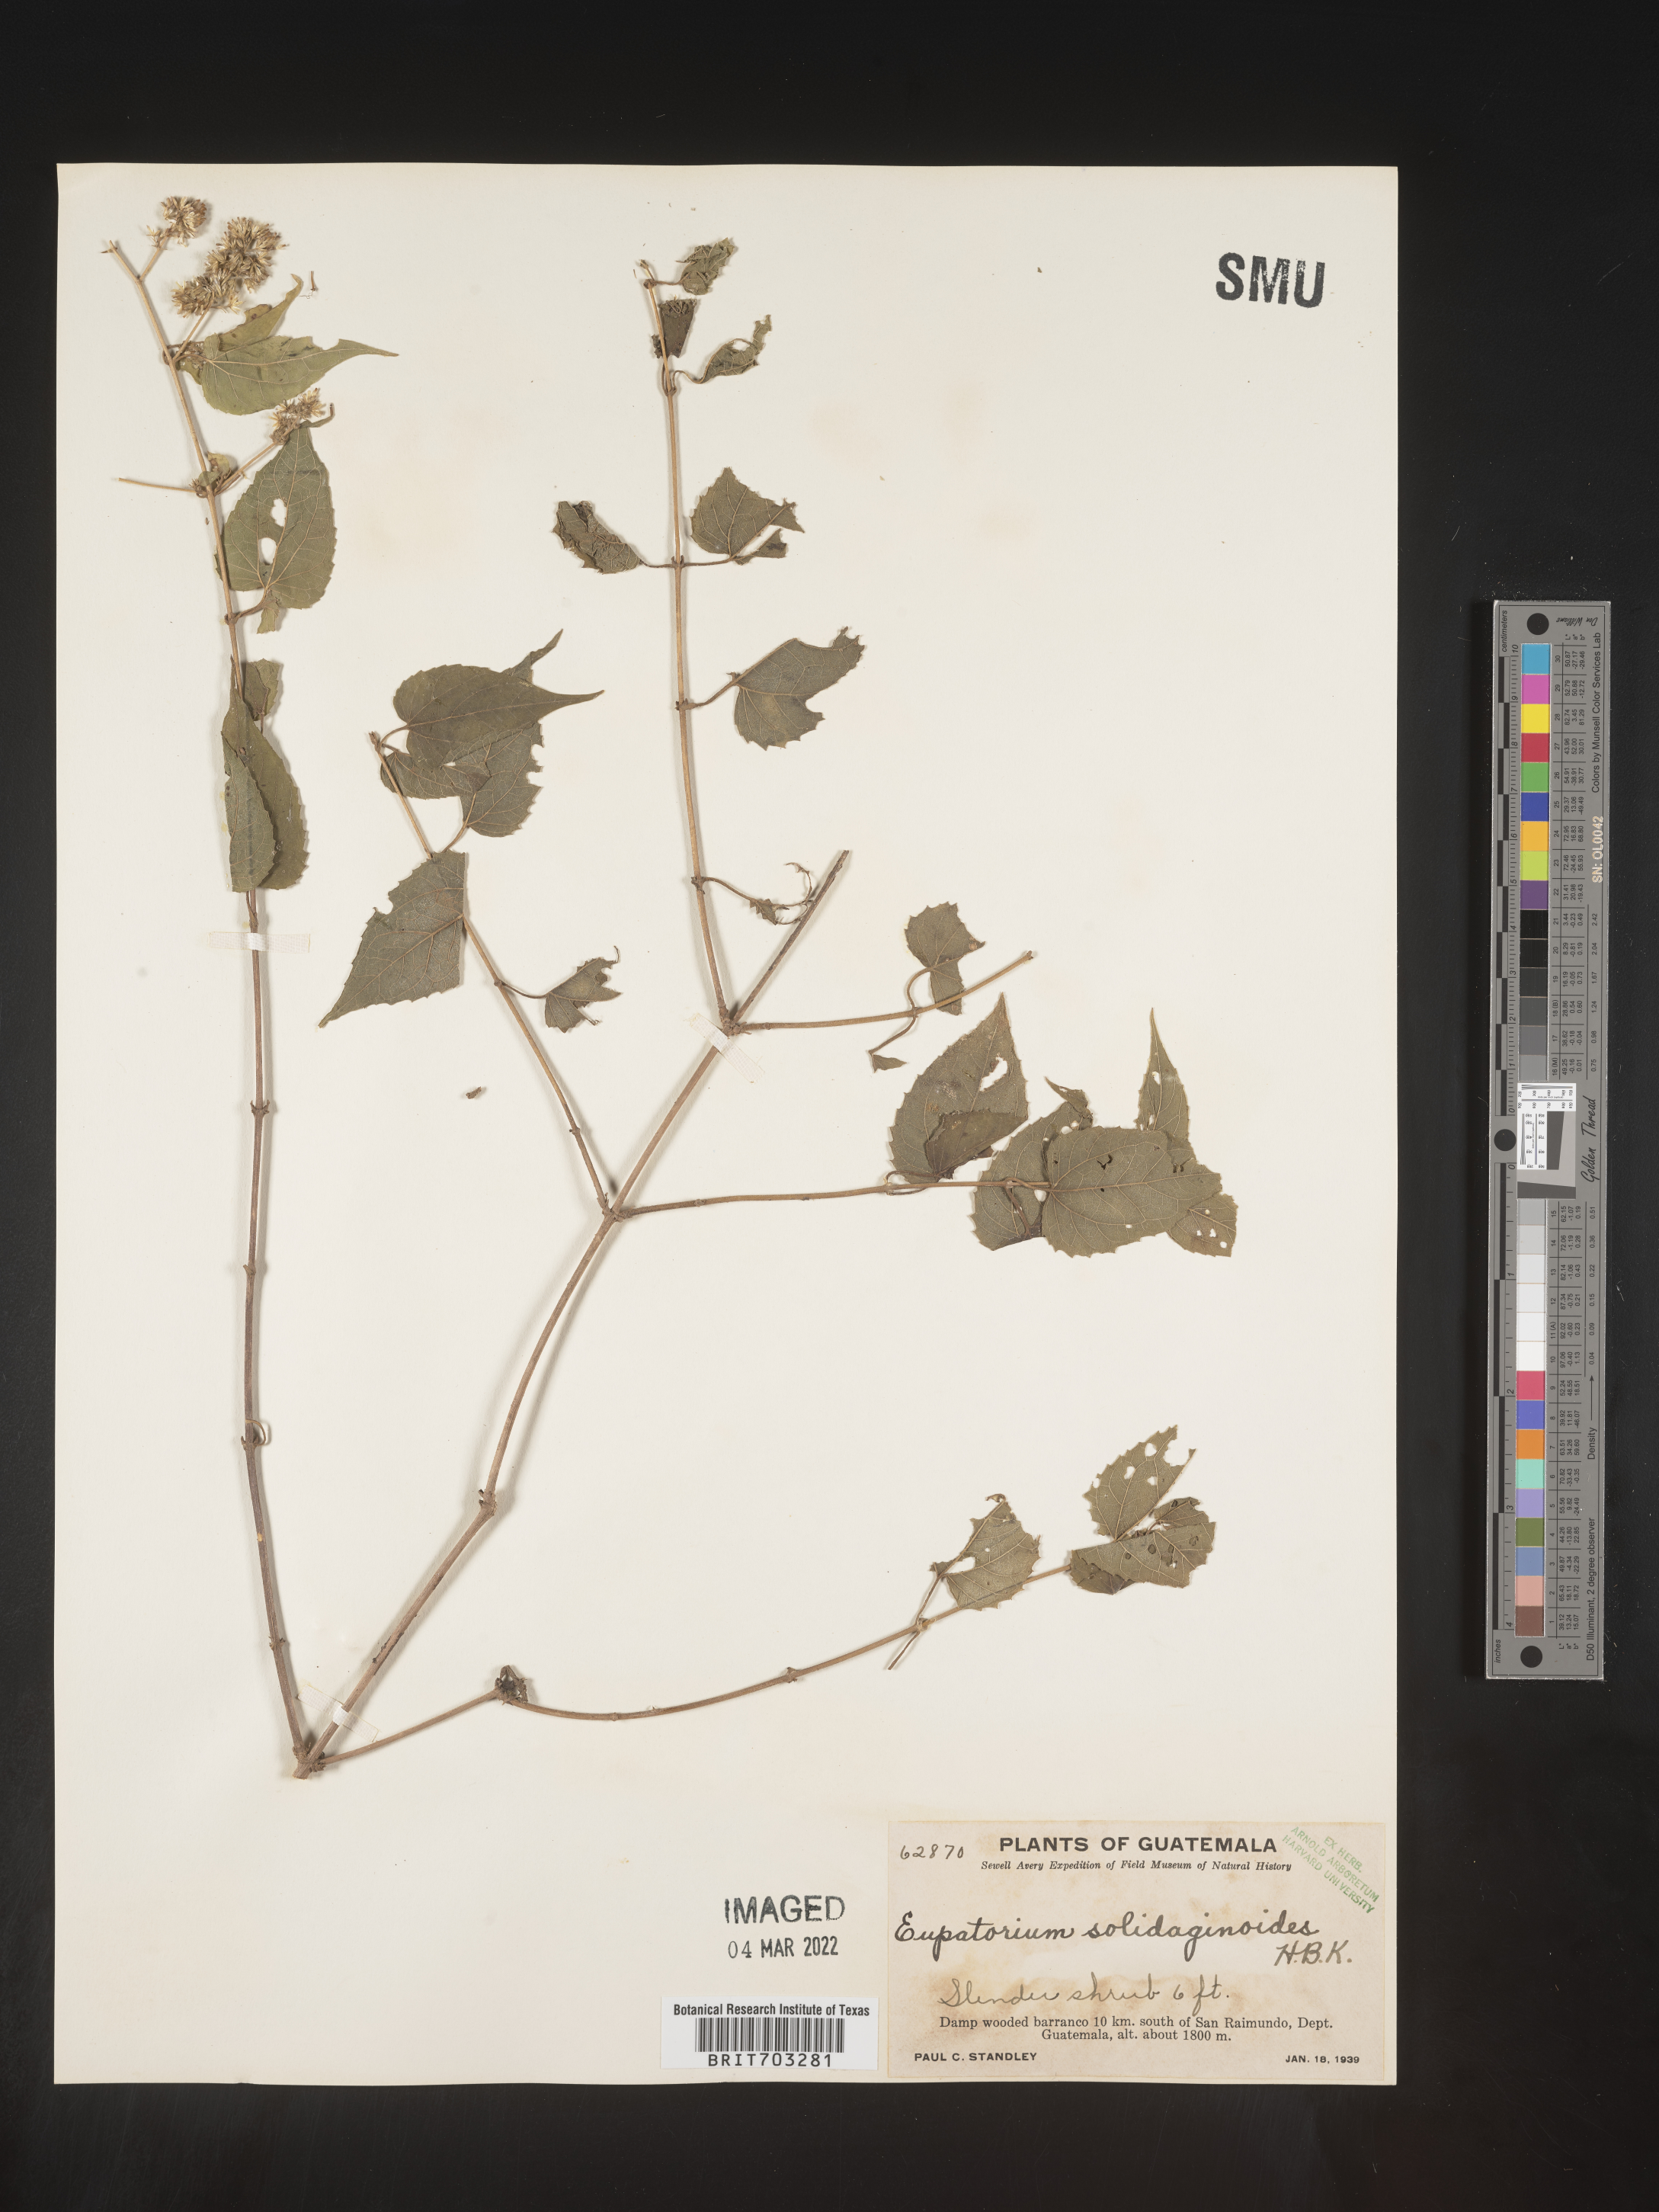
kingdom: Plantae
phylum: Tracheophyta
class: Magnoliopsida
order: Asterales
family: Asteraceae
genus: Eupatorium
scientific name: Eupatorium
